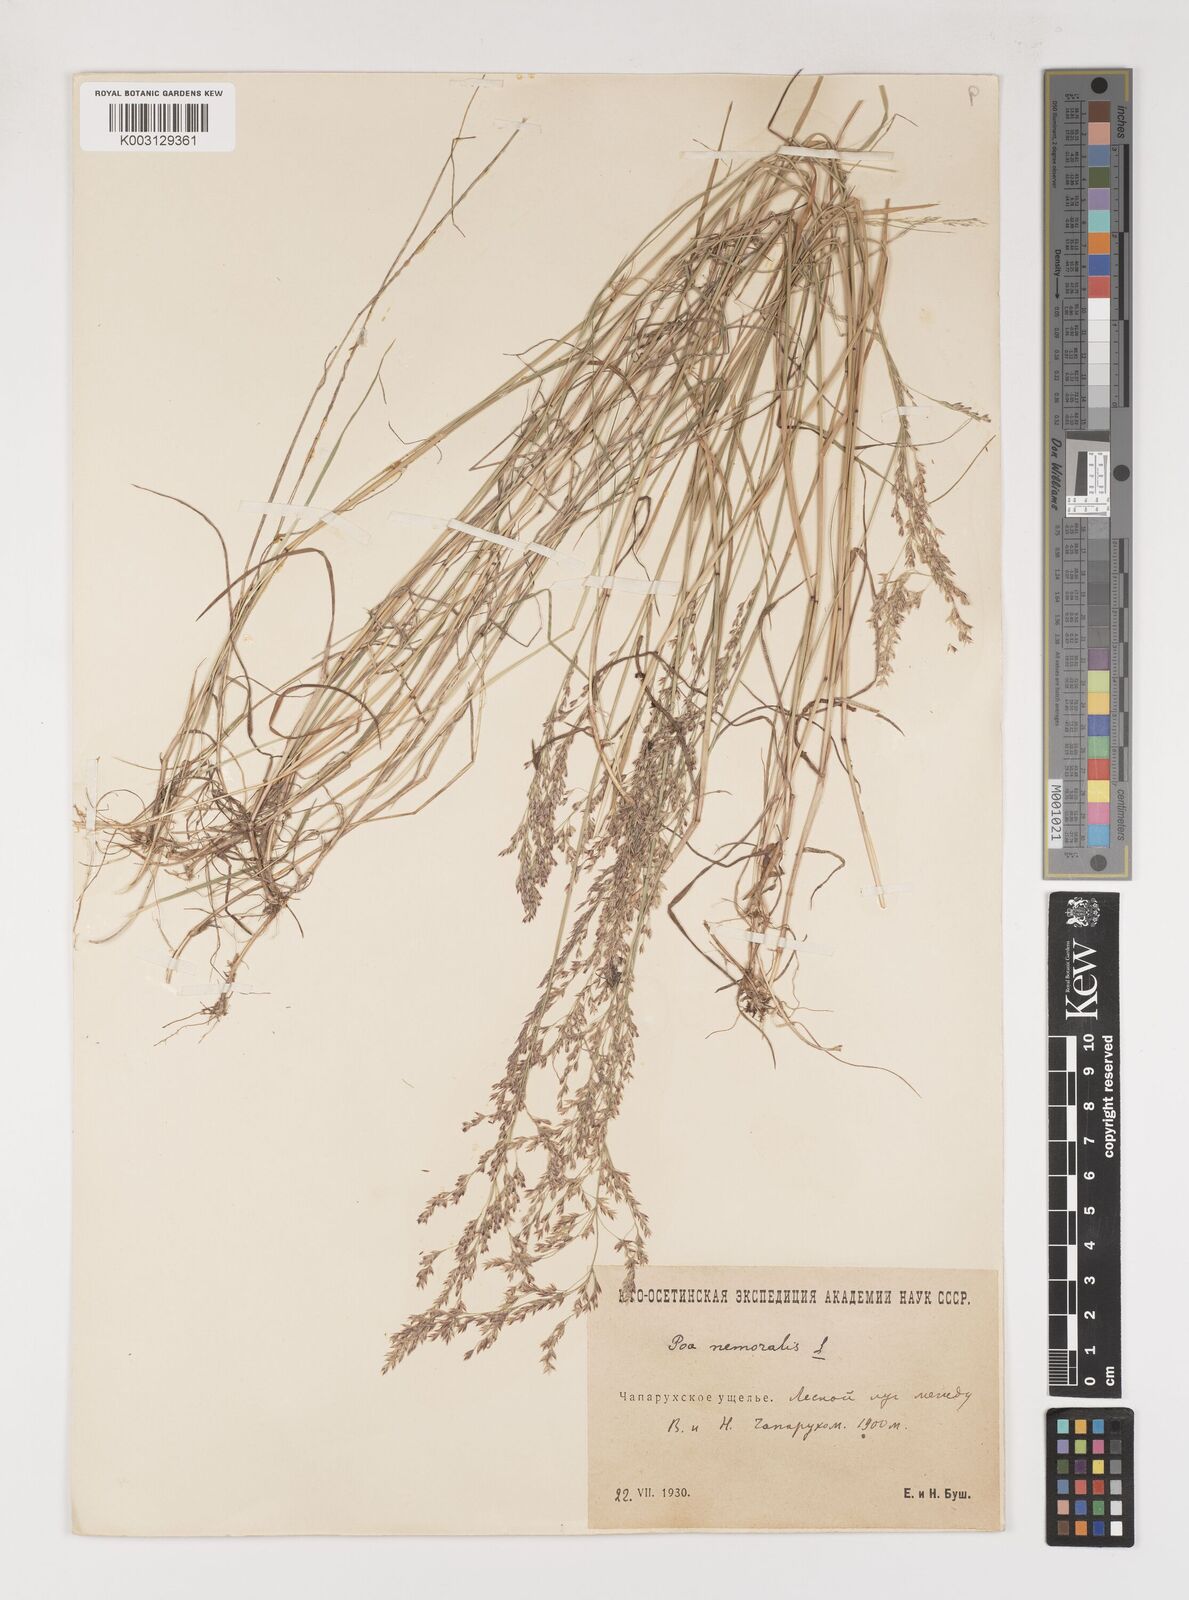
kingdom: Plantae
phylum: Tracheophyta
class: Liliopsida
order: Poales
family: Poaceae
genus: Poa
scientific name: Poa nemoralis
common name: Wood bluegrass
